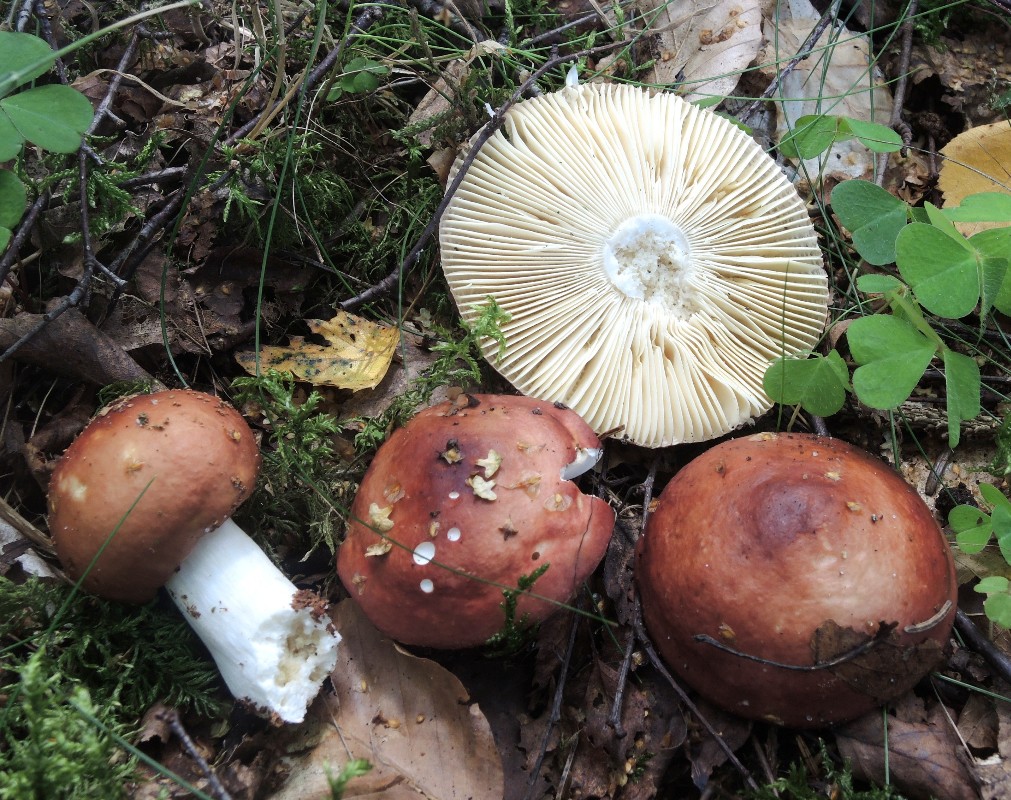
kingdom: Fungi
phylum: Basidiomycota
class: Agaricomycetes
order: Russulales
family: Russulaceae
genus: Russula
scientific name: Russula velenovskyi
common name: orangerød skørhat
